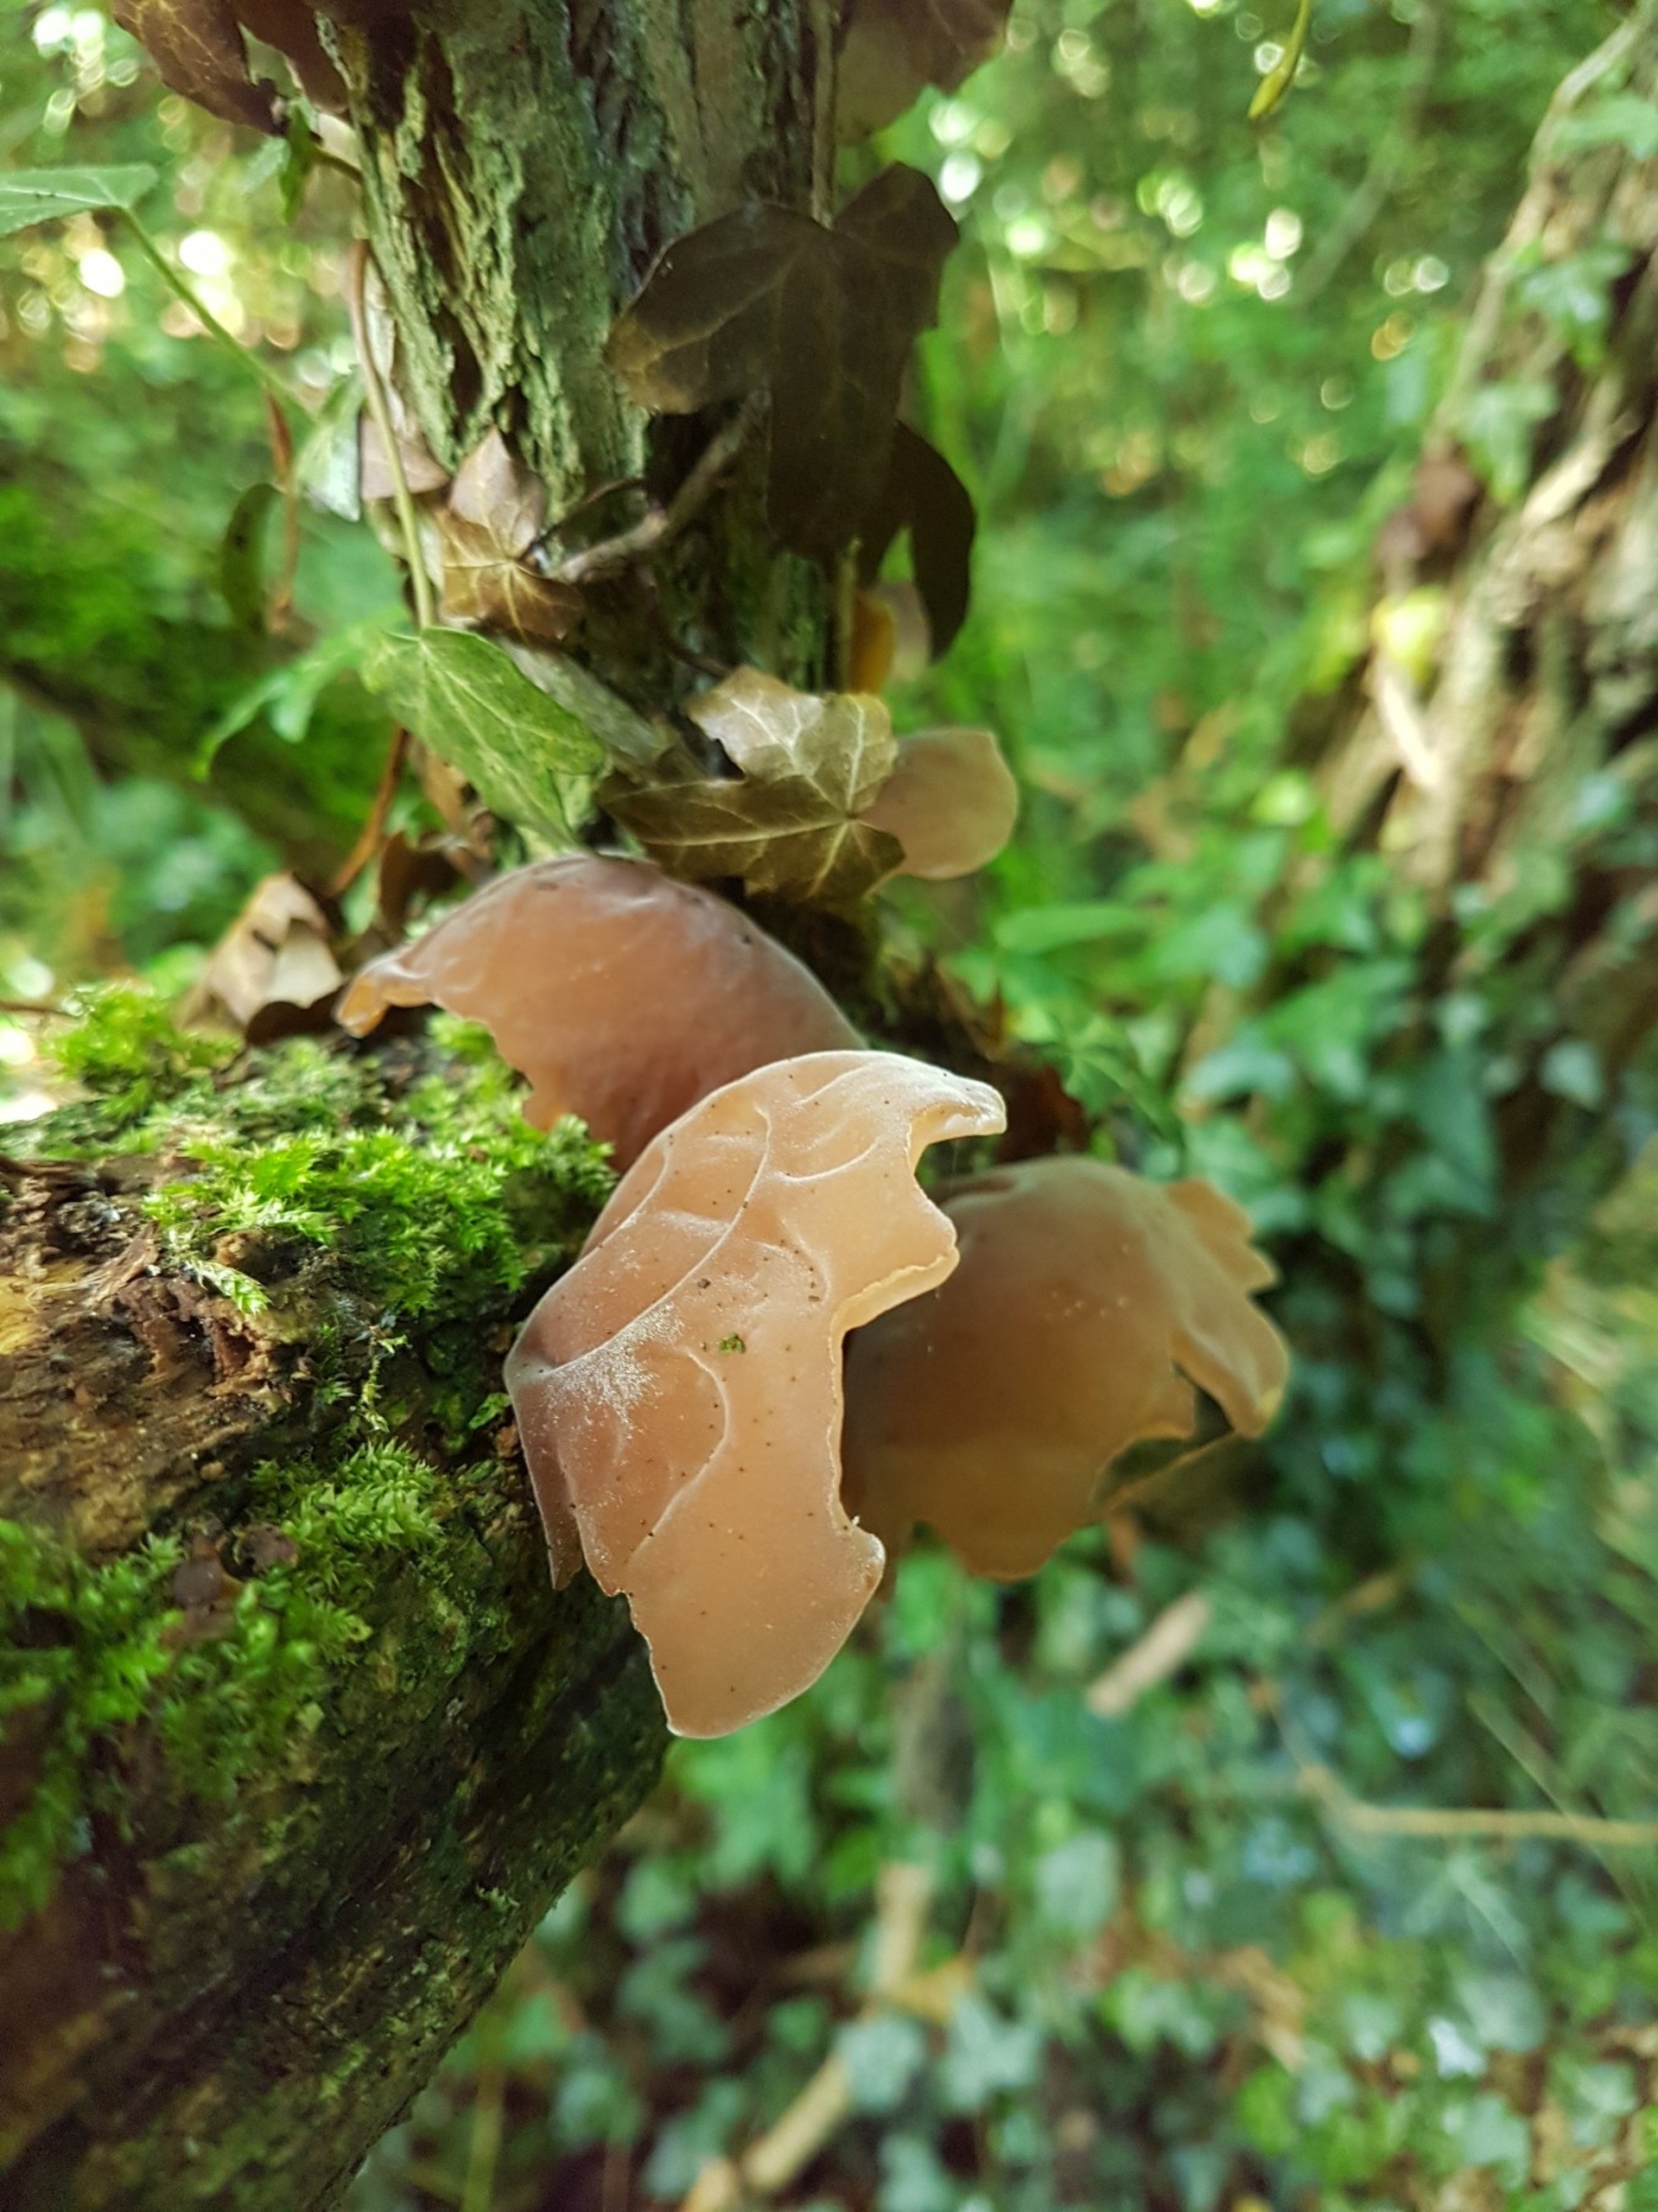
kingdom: Fungi
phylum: Basidiomycota
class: Agaricomycetes
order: Auriculariales
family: Auriculariaceae
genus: Auricularia
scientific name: Auricularia auricula-judae
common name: Almindelig judasøre
